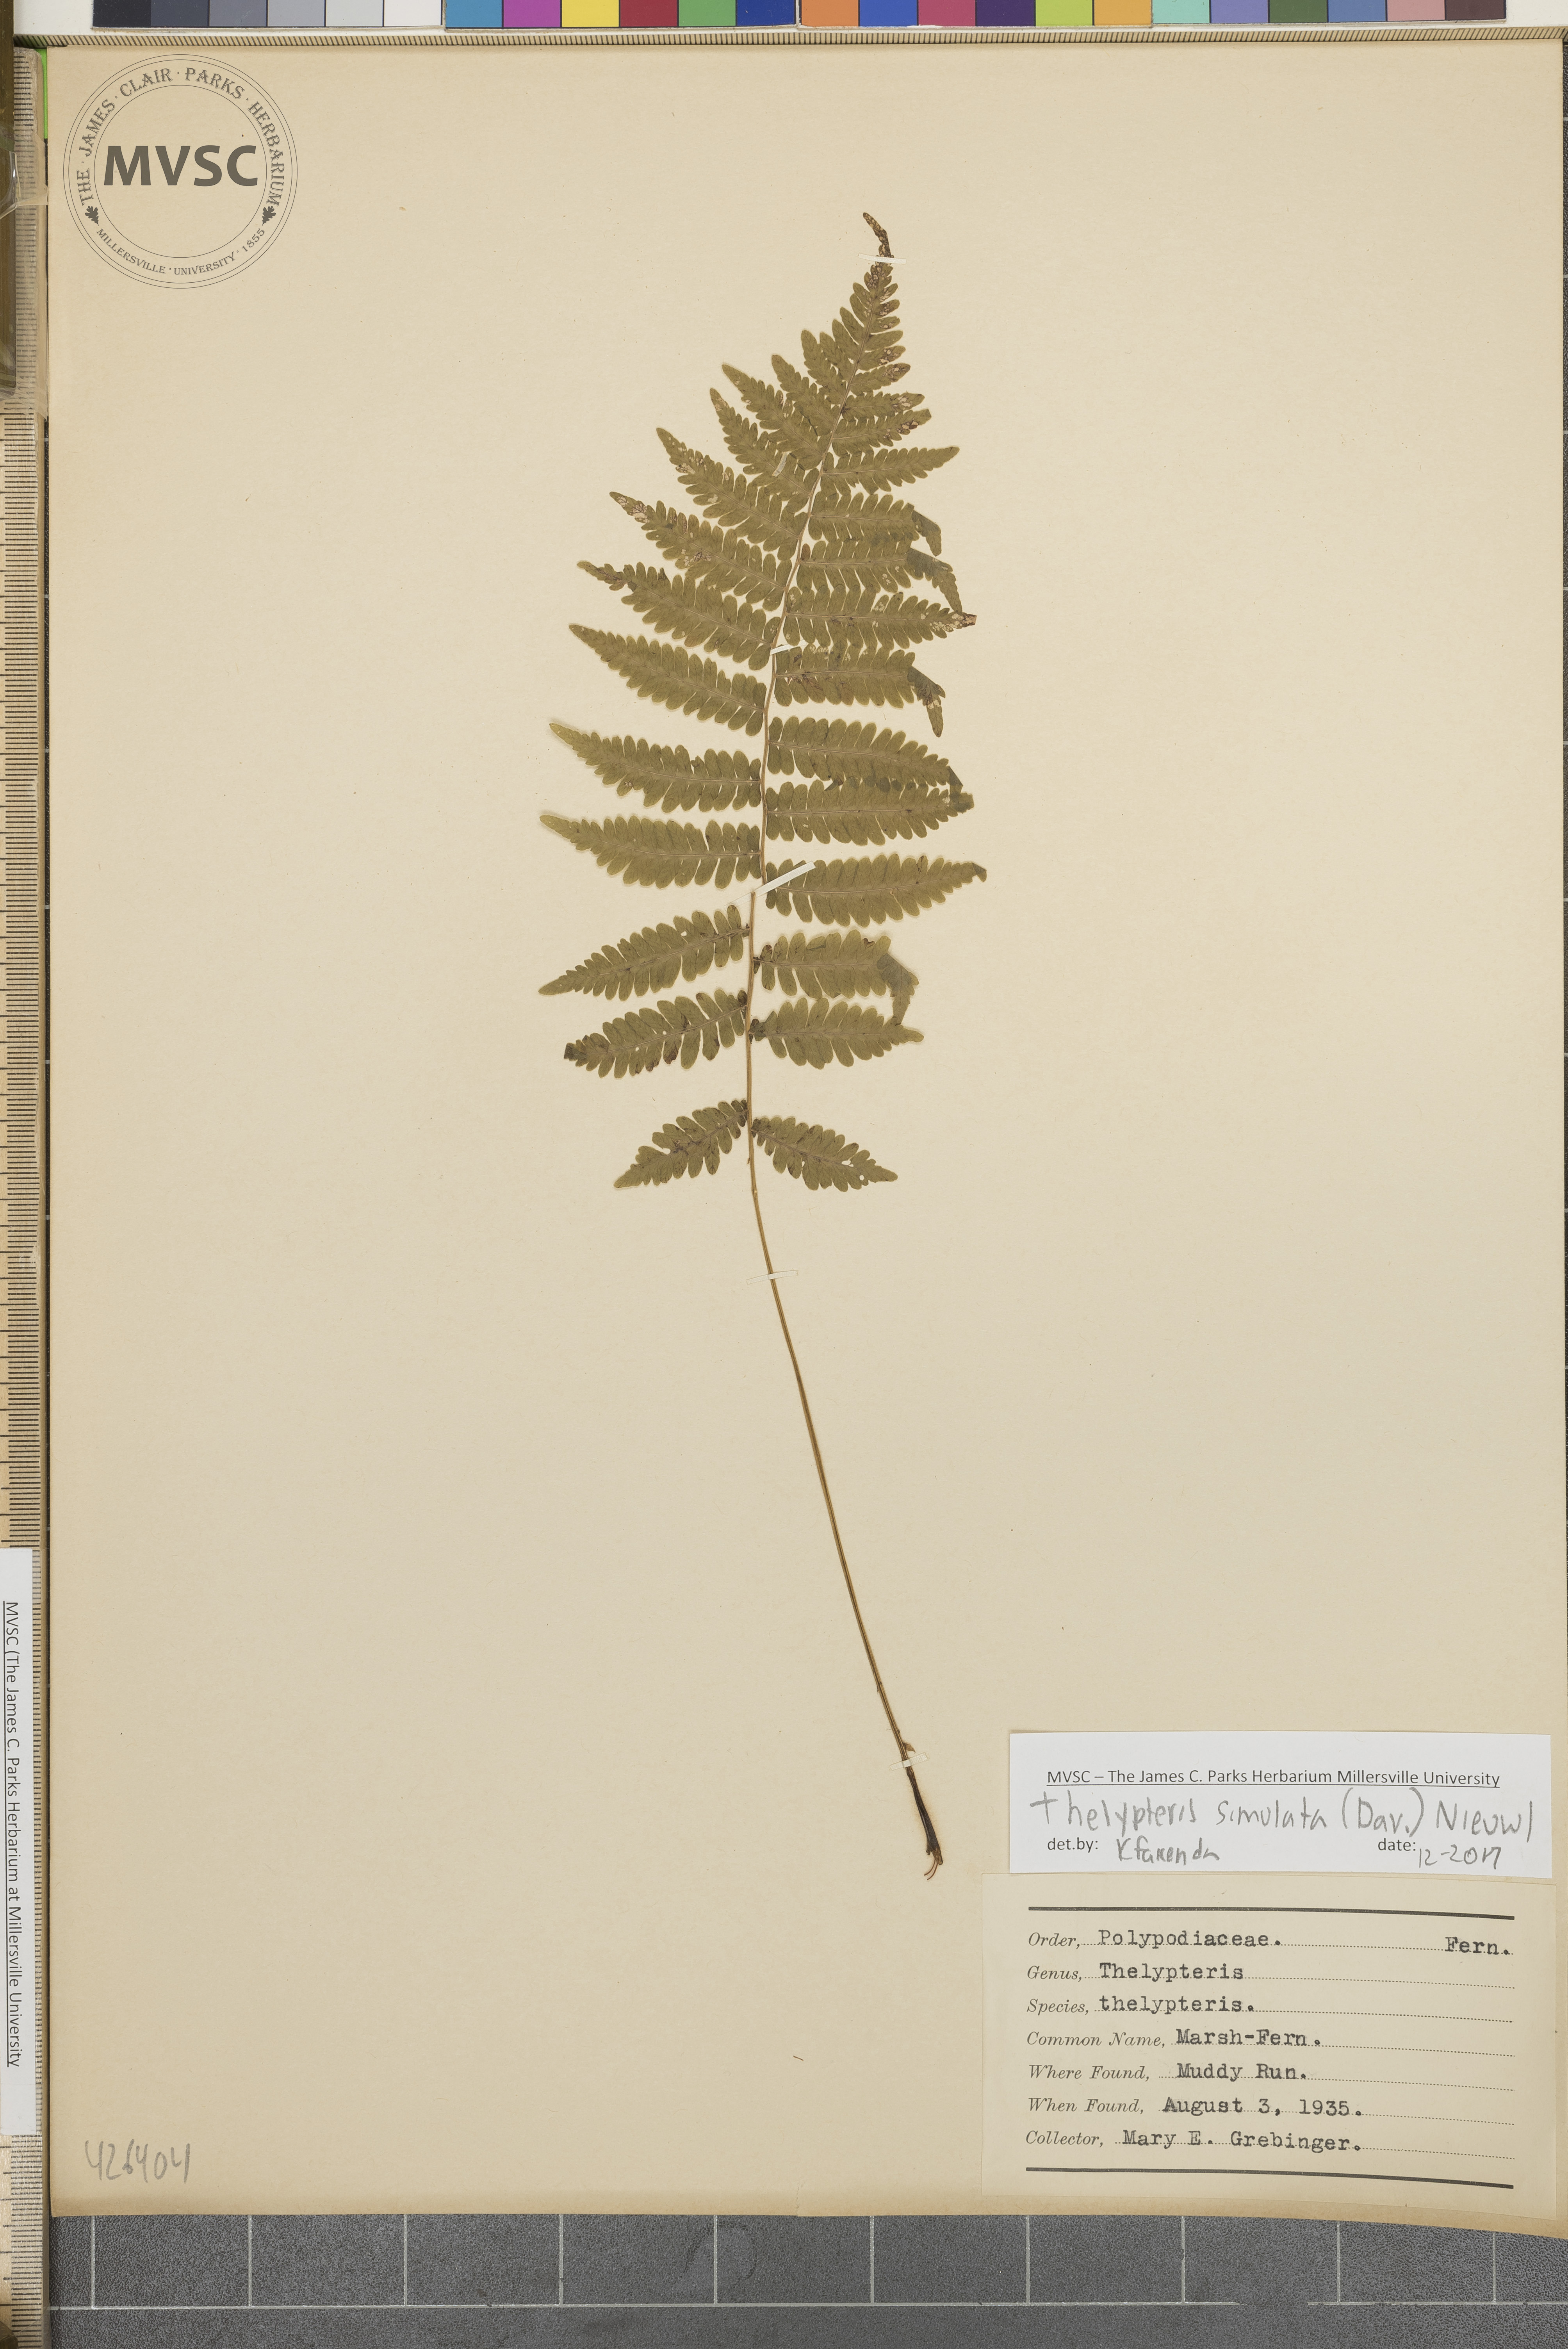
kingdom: Plantae
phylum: Tracheophyta
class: Polypodiopsida
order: Polypodiales
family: Thelypteridaceae
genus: Coryphopteris
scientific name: Coryphopteris simulata
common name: Marsh fern
